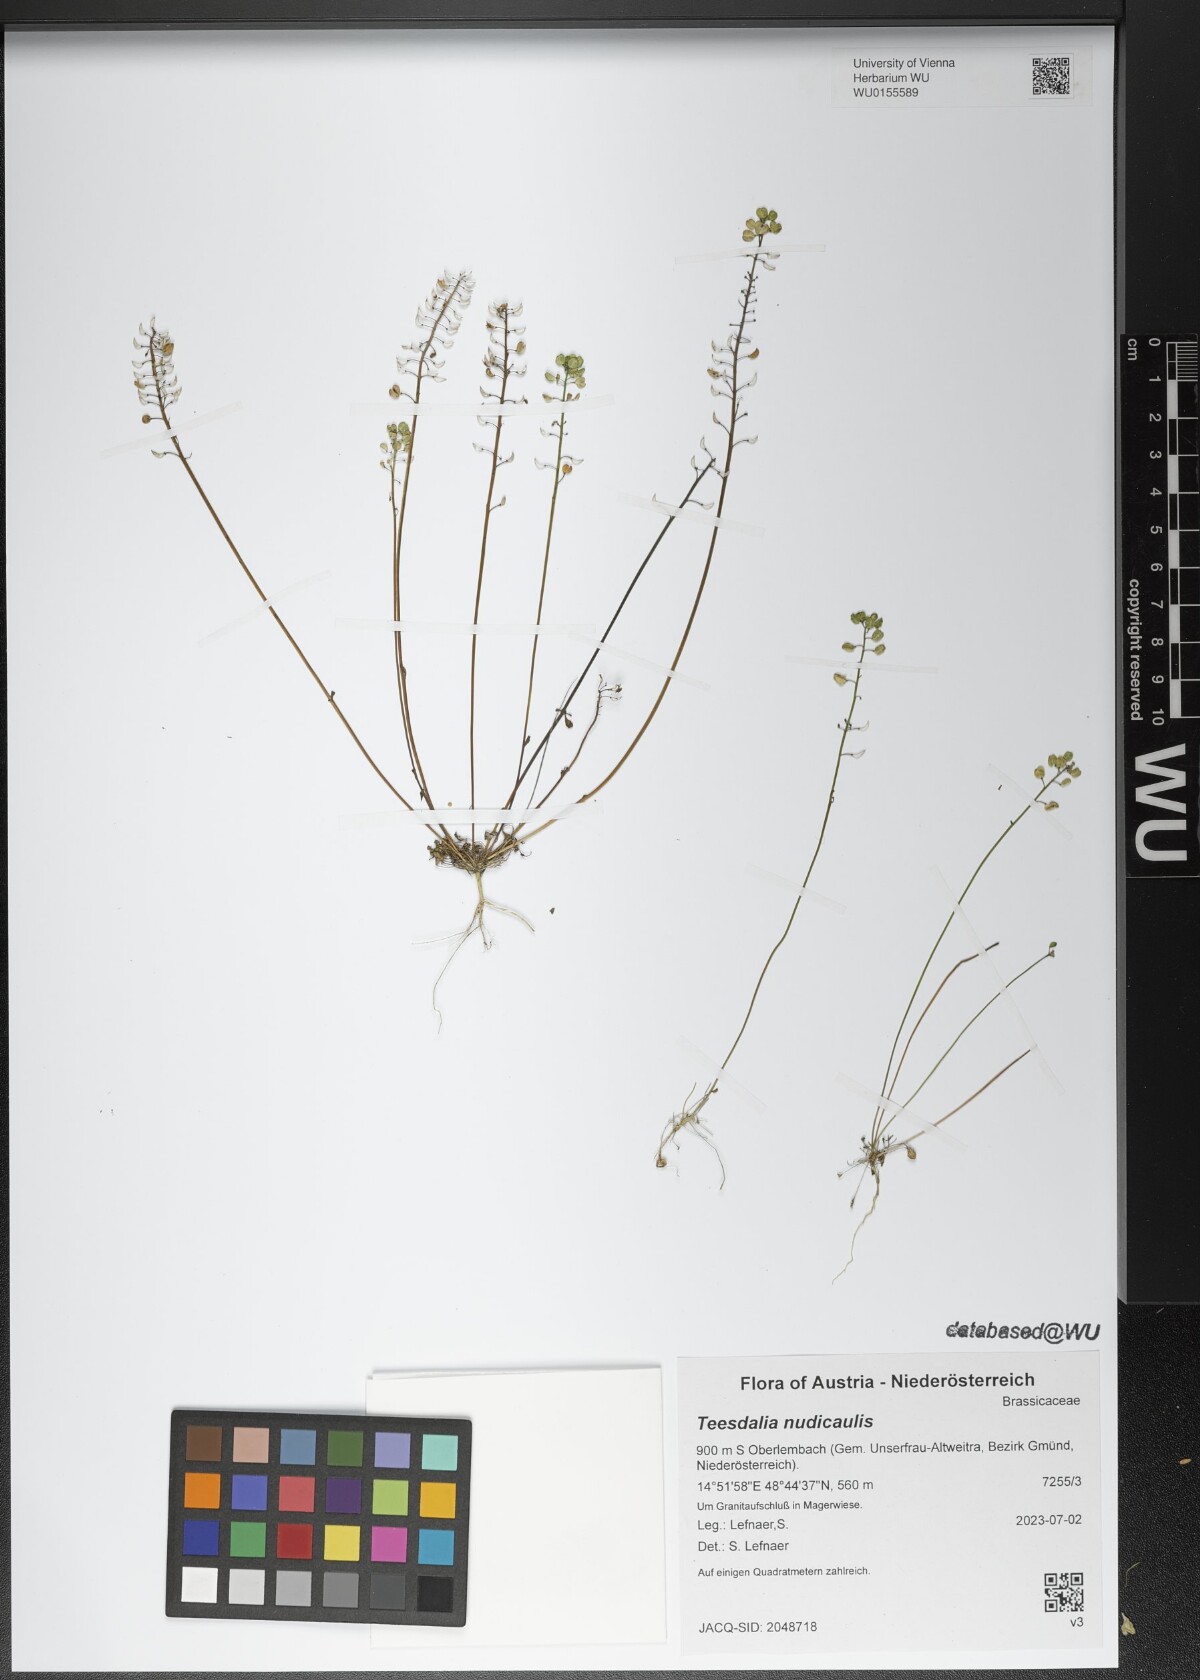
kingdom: Plantae
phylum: Tracheophyta
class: Magnoliopsida
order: Brassicales
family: Brassicaceae
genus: Teesdalia
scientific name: Teesdalia nudicaulis
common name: Shepherd's cress
